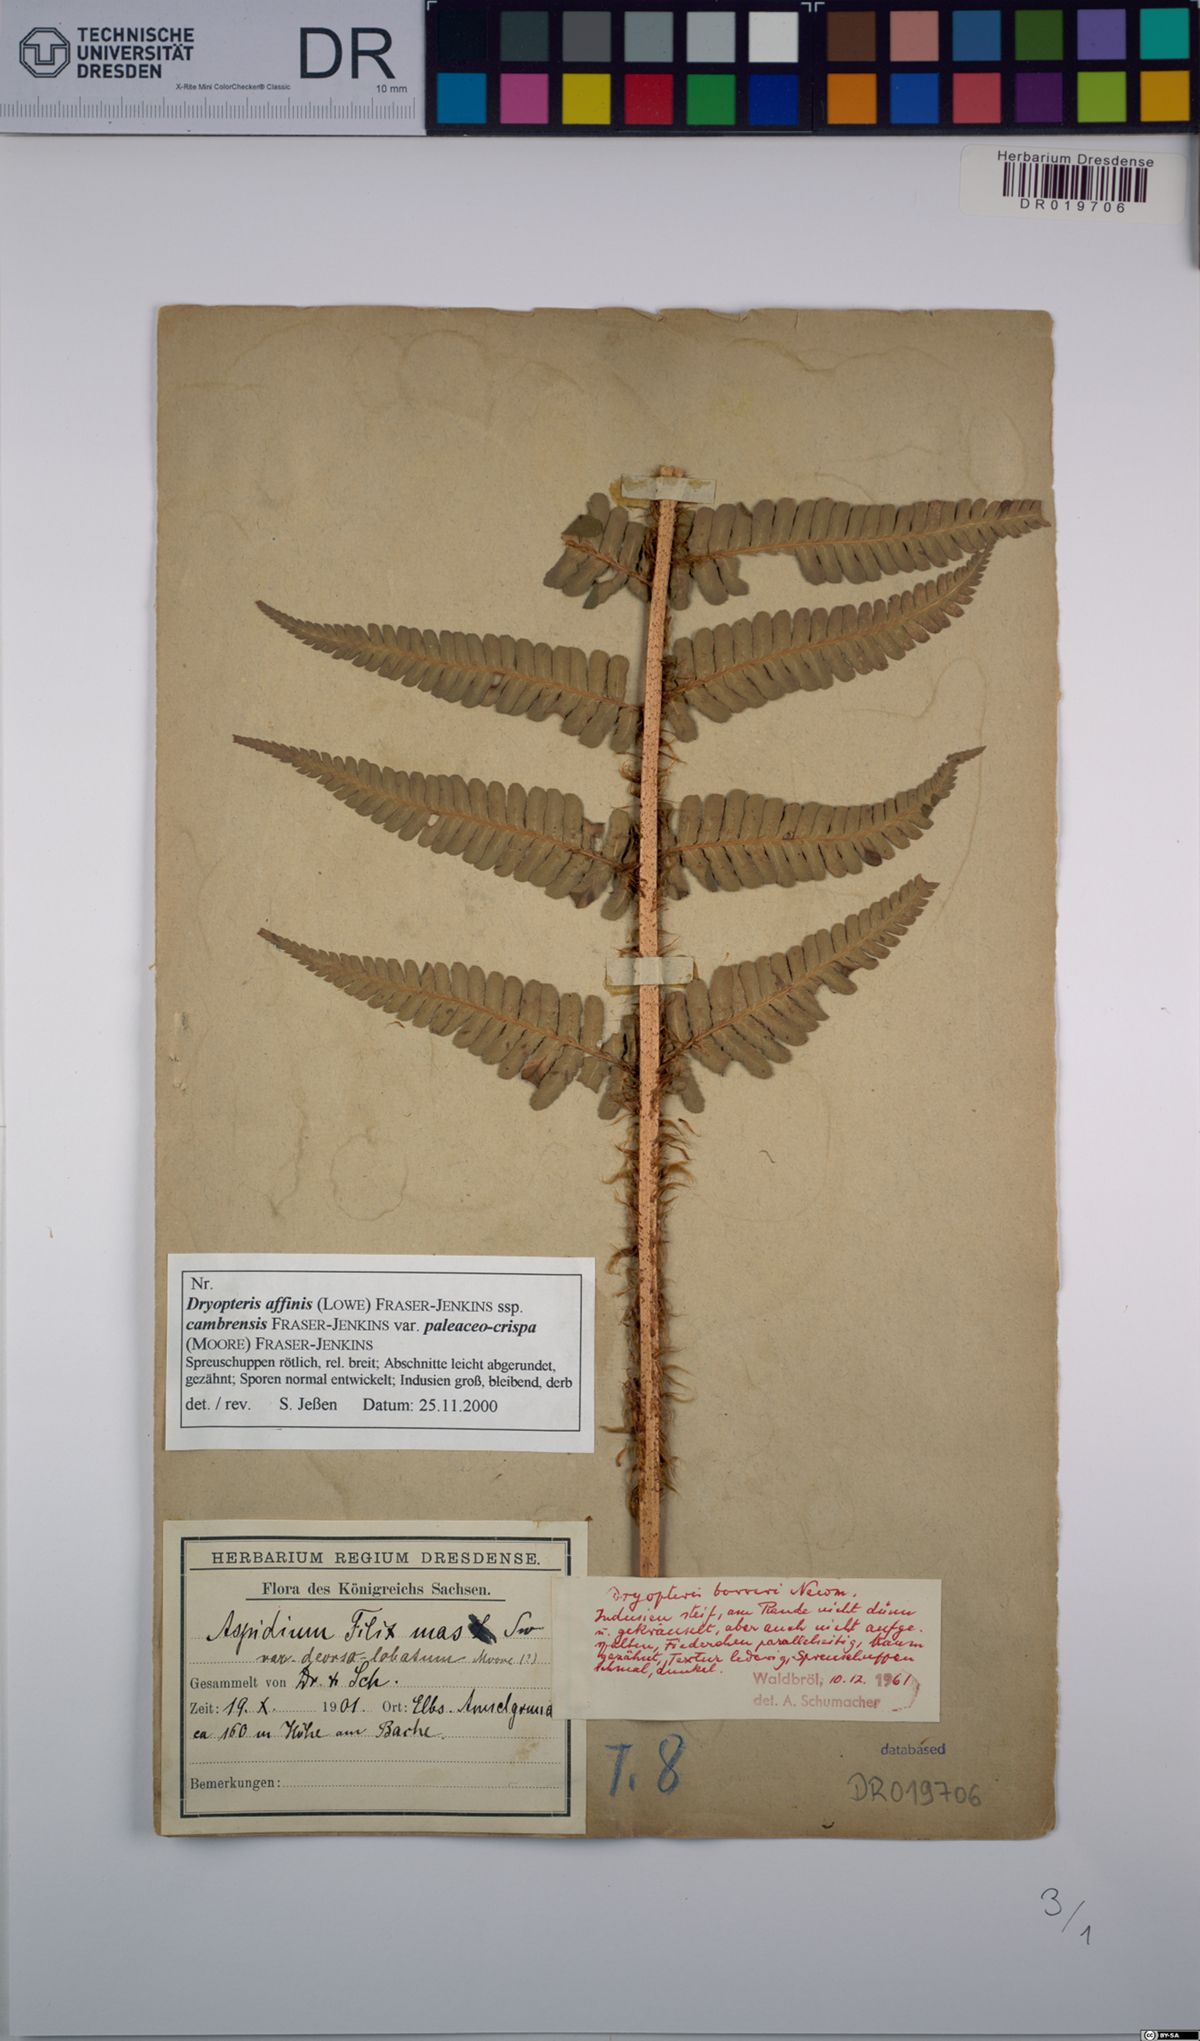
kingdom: Plantae
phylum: Tracheophyta
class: Polypodiopsida
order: Polypodiales
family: Dryopteridaceae
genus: Dryopteris
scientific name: Dryopteris affinis
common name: Scaly male fern
